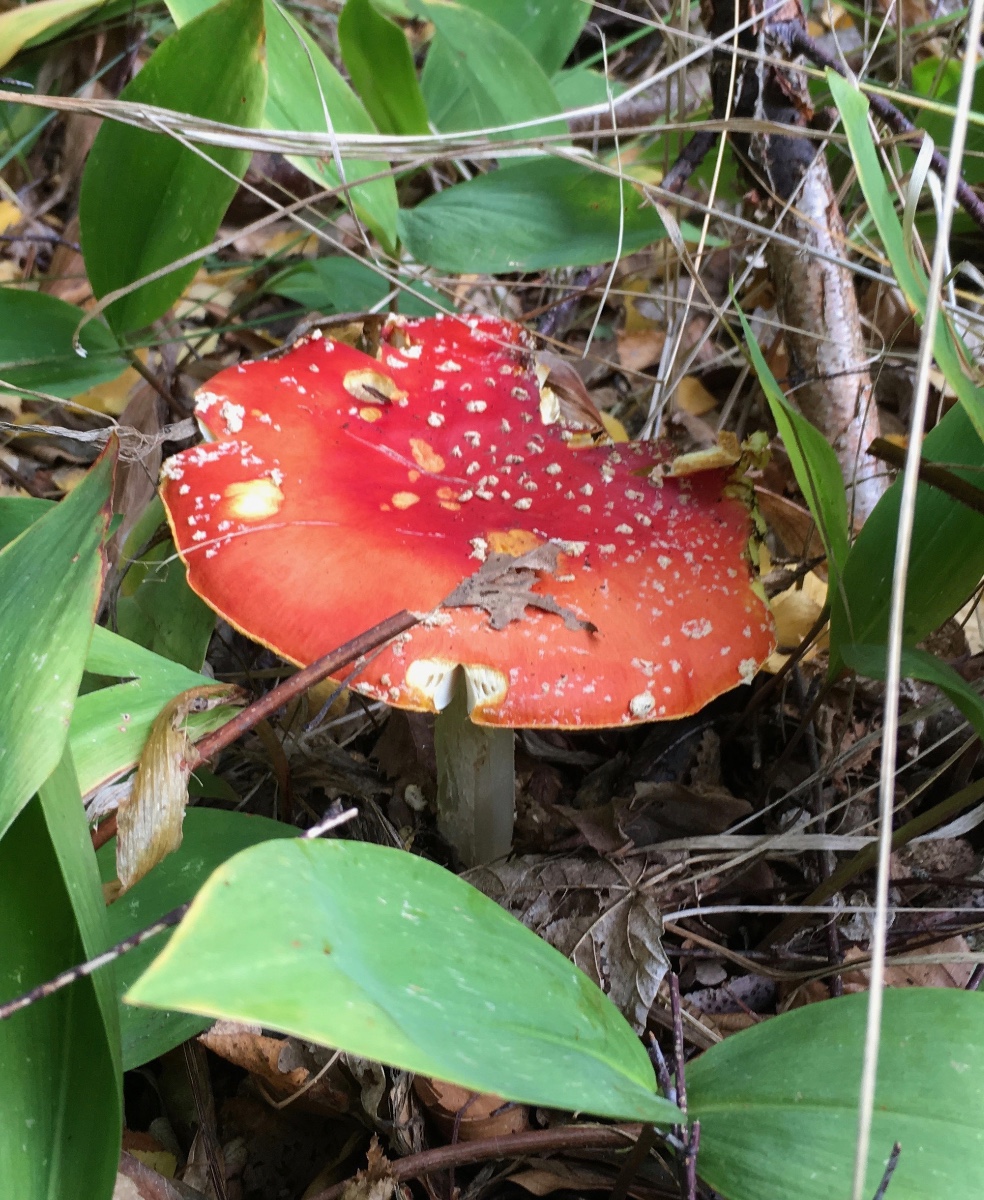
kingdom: Fungi
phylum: Basidiomycota
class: Agaricomycetes
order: Agaricales
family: Amanitaceae
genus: Amanita
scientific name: Amanita muscaria
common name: rød fluesvamp
